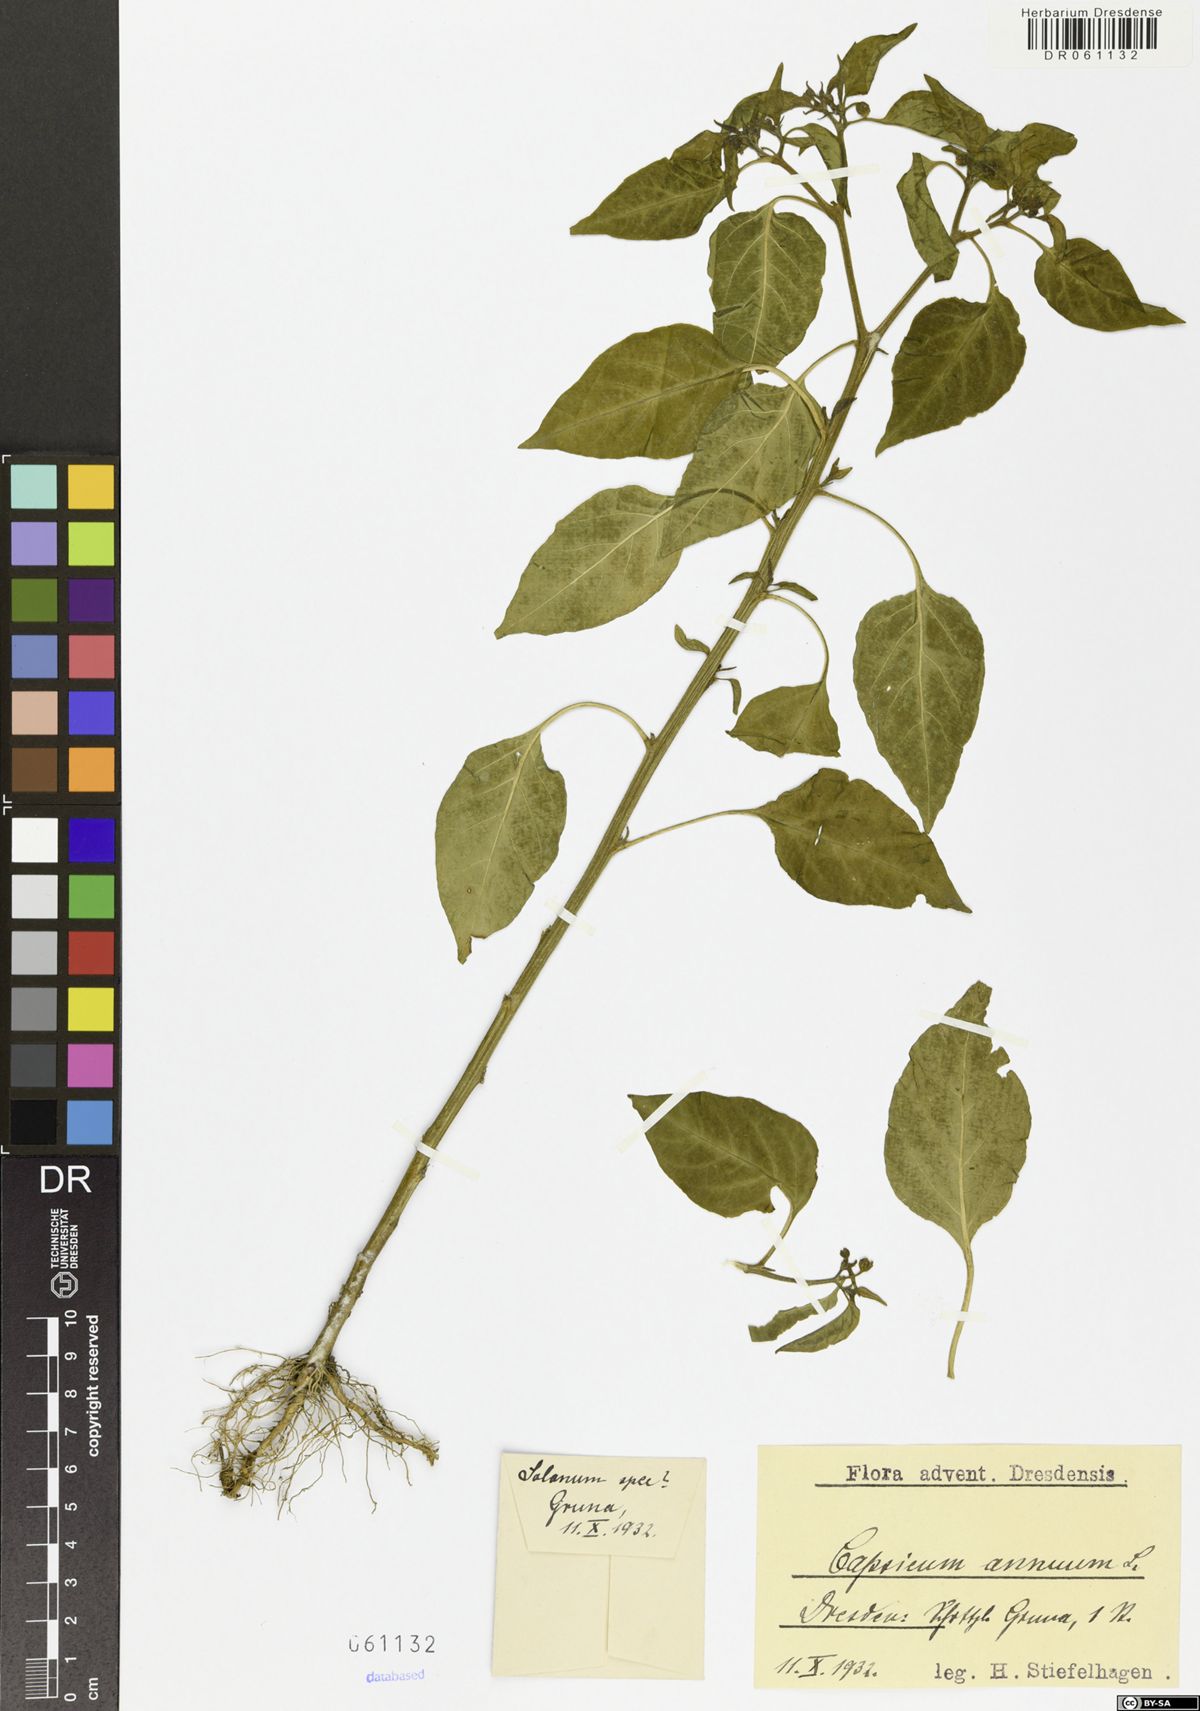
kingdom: Plantae
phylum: Tracheophyta
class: Magnoliopsida
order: Solanales
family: Solanaceae
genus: Capsicum
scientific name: Capsicum annuum
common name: Sweet pepper
